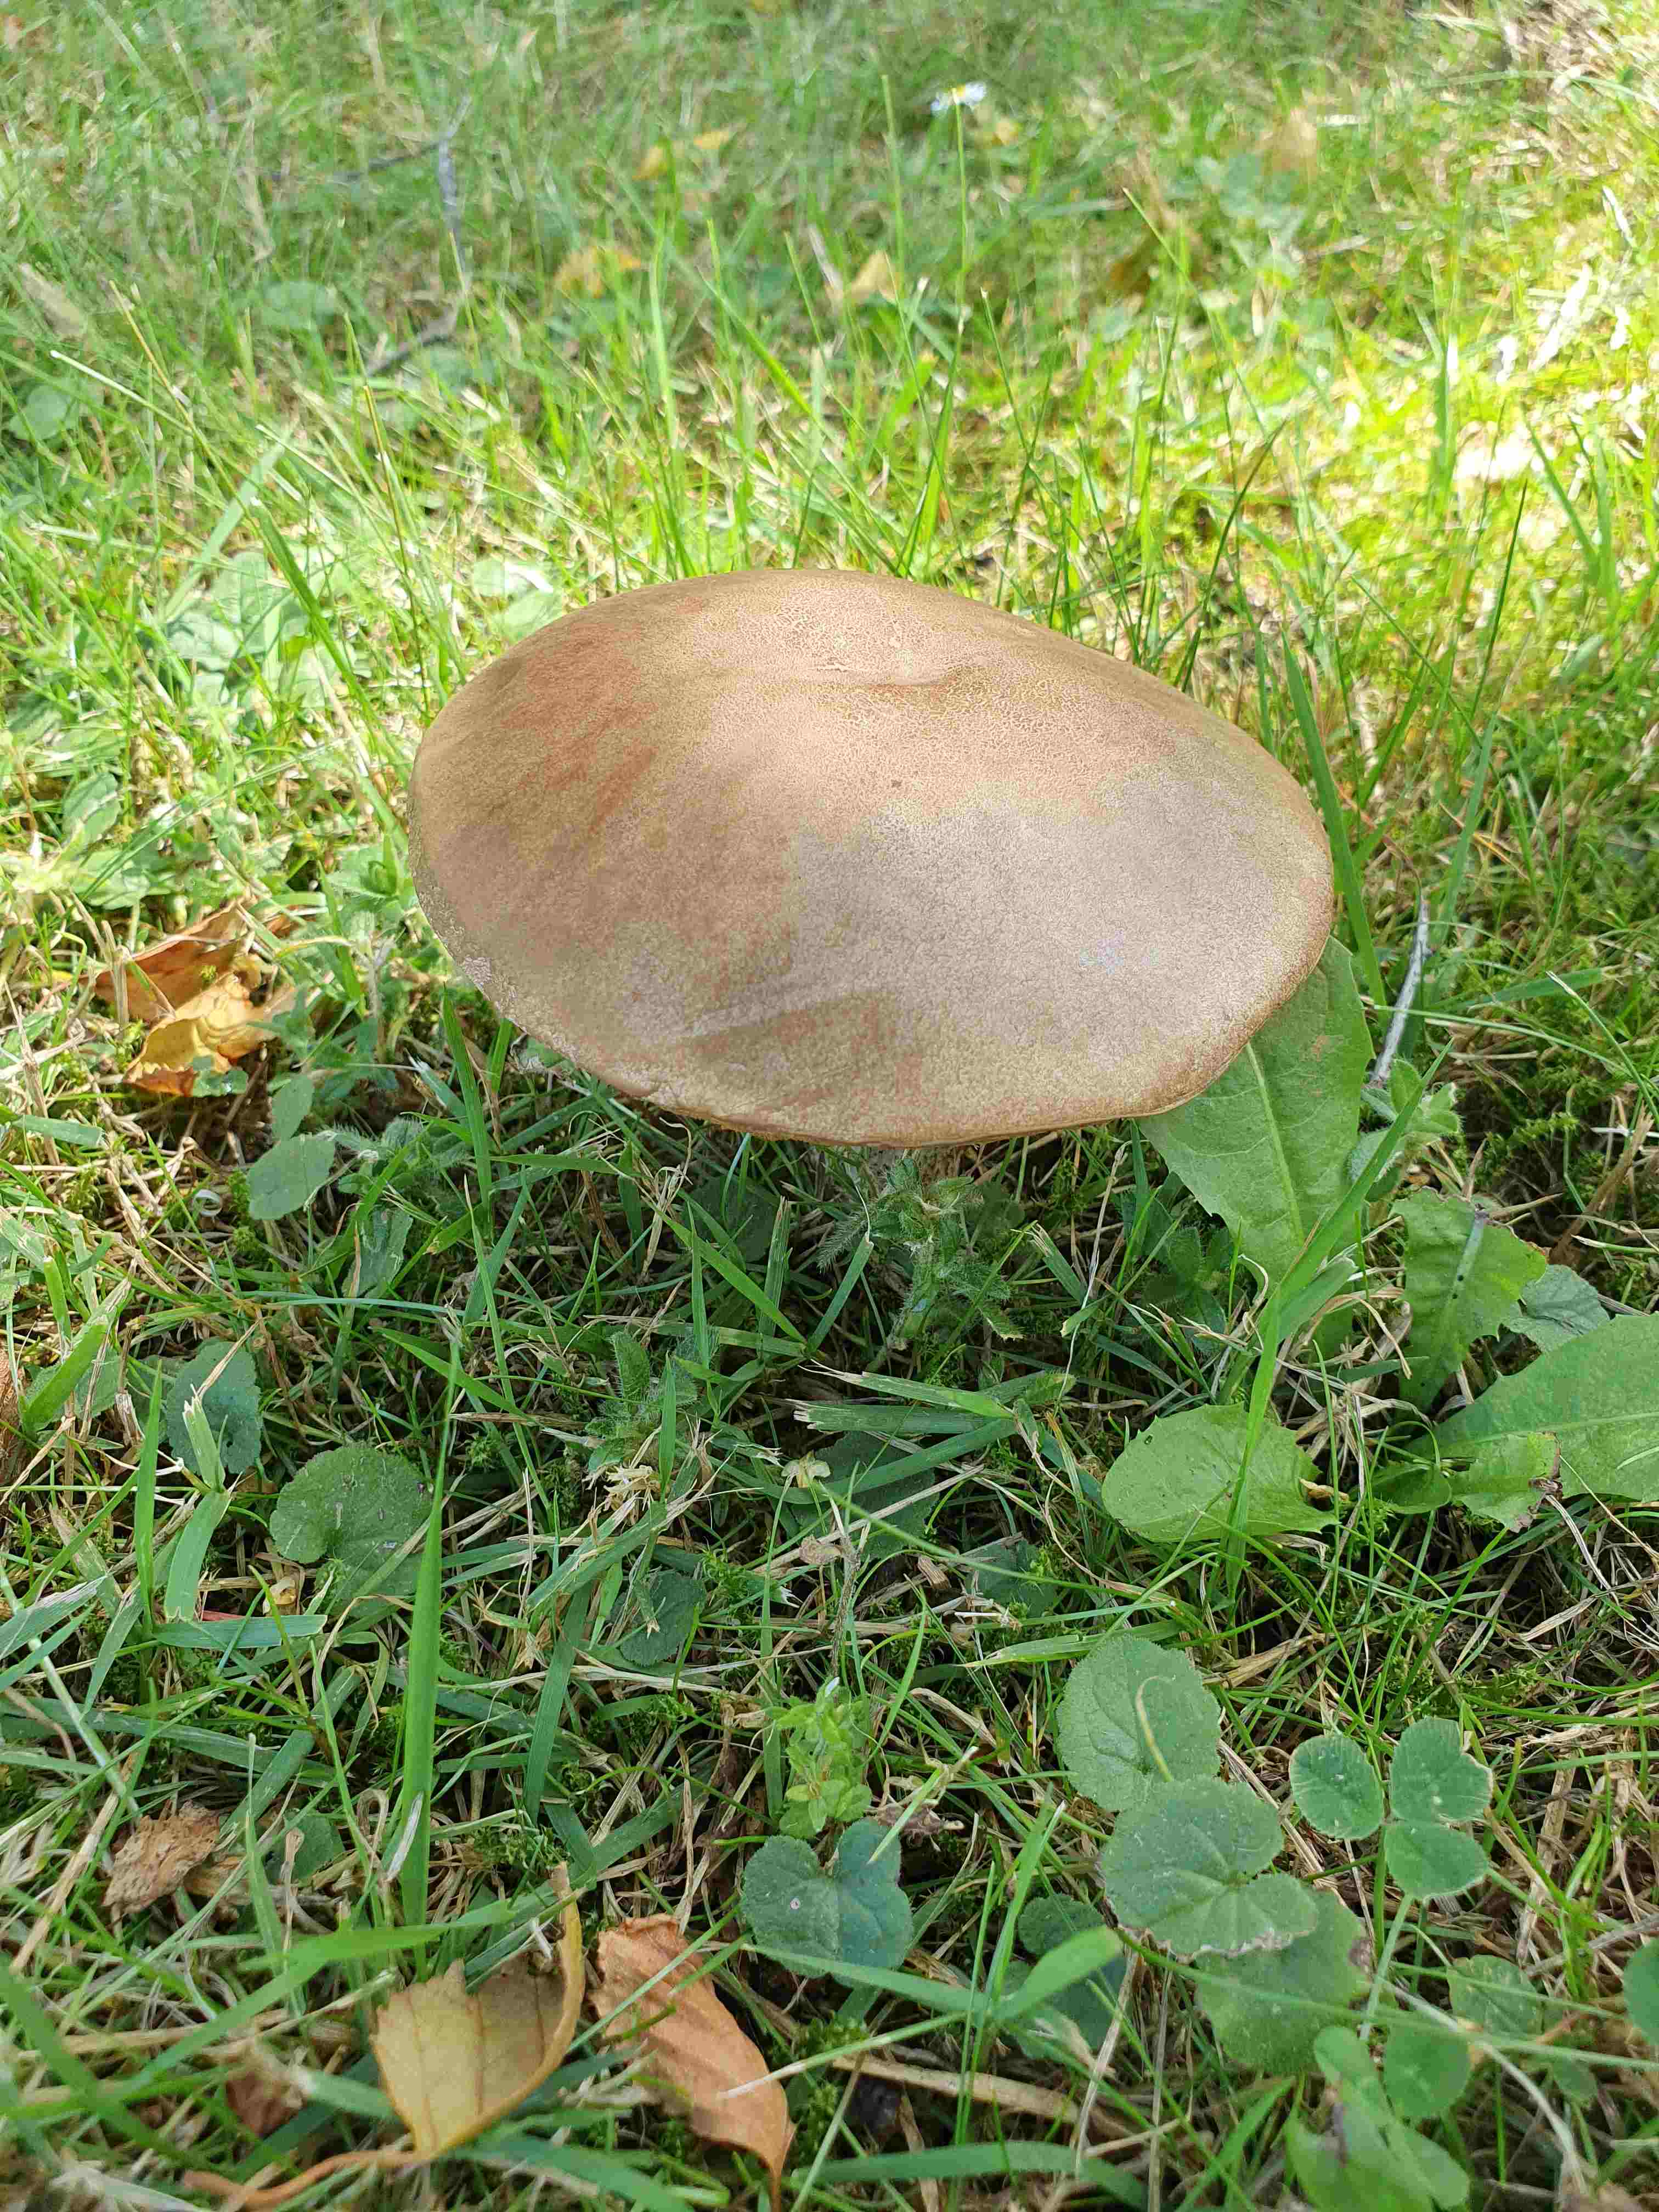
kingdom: Fungi
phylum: Basidiomycota
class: Agaricomycetes
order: Boletales
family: Boletaceae
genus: Leccinum
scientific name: Leccinum scabrum
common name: brun skælrørhat
